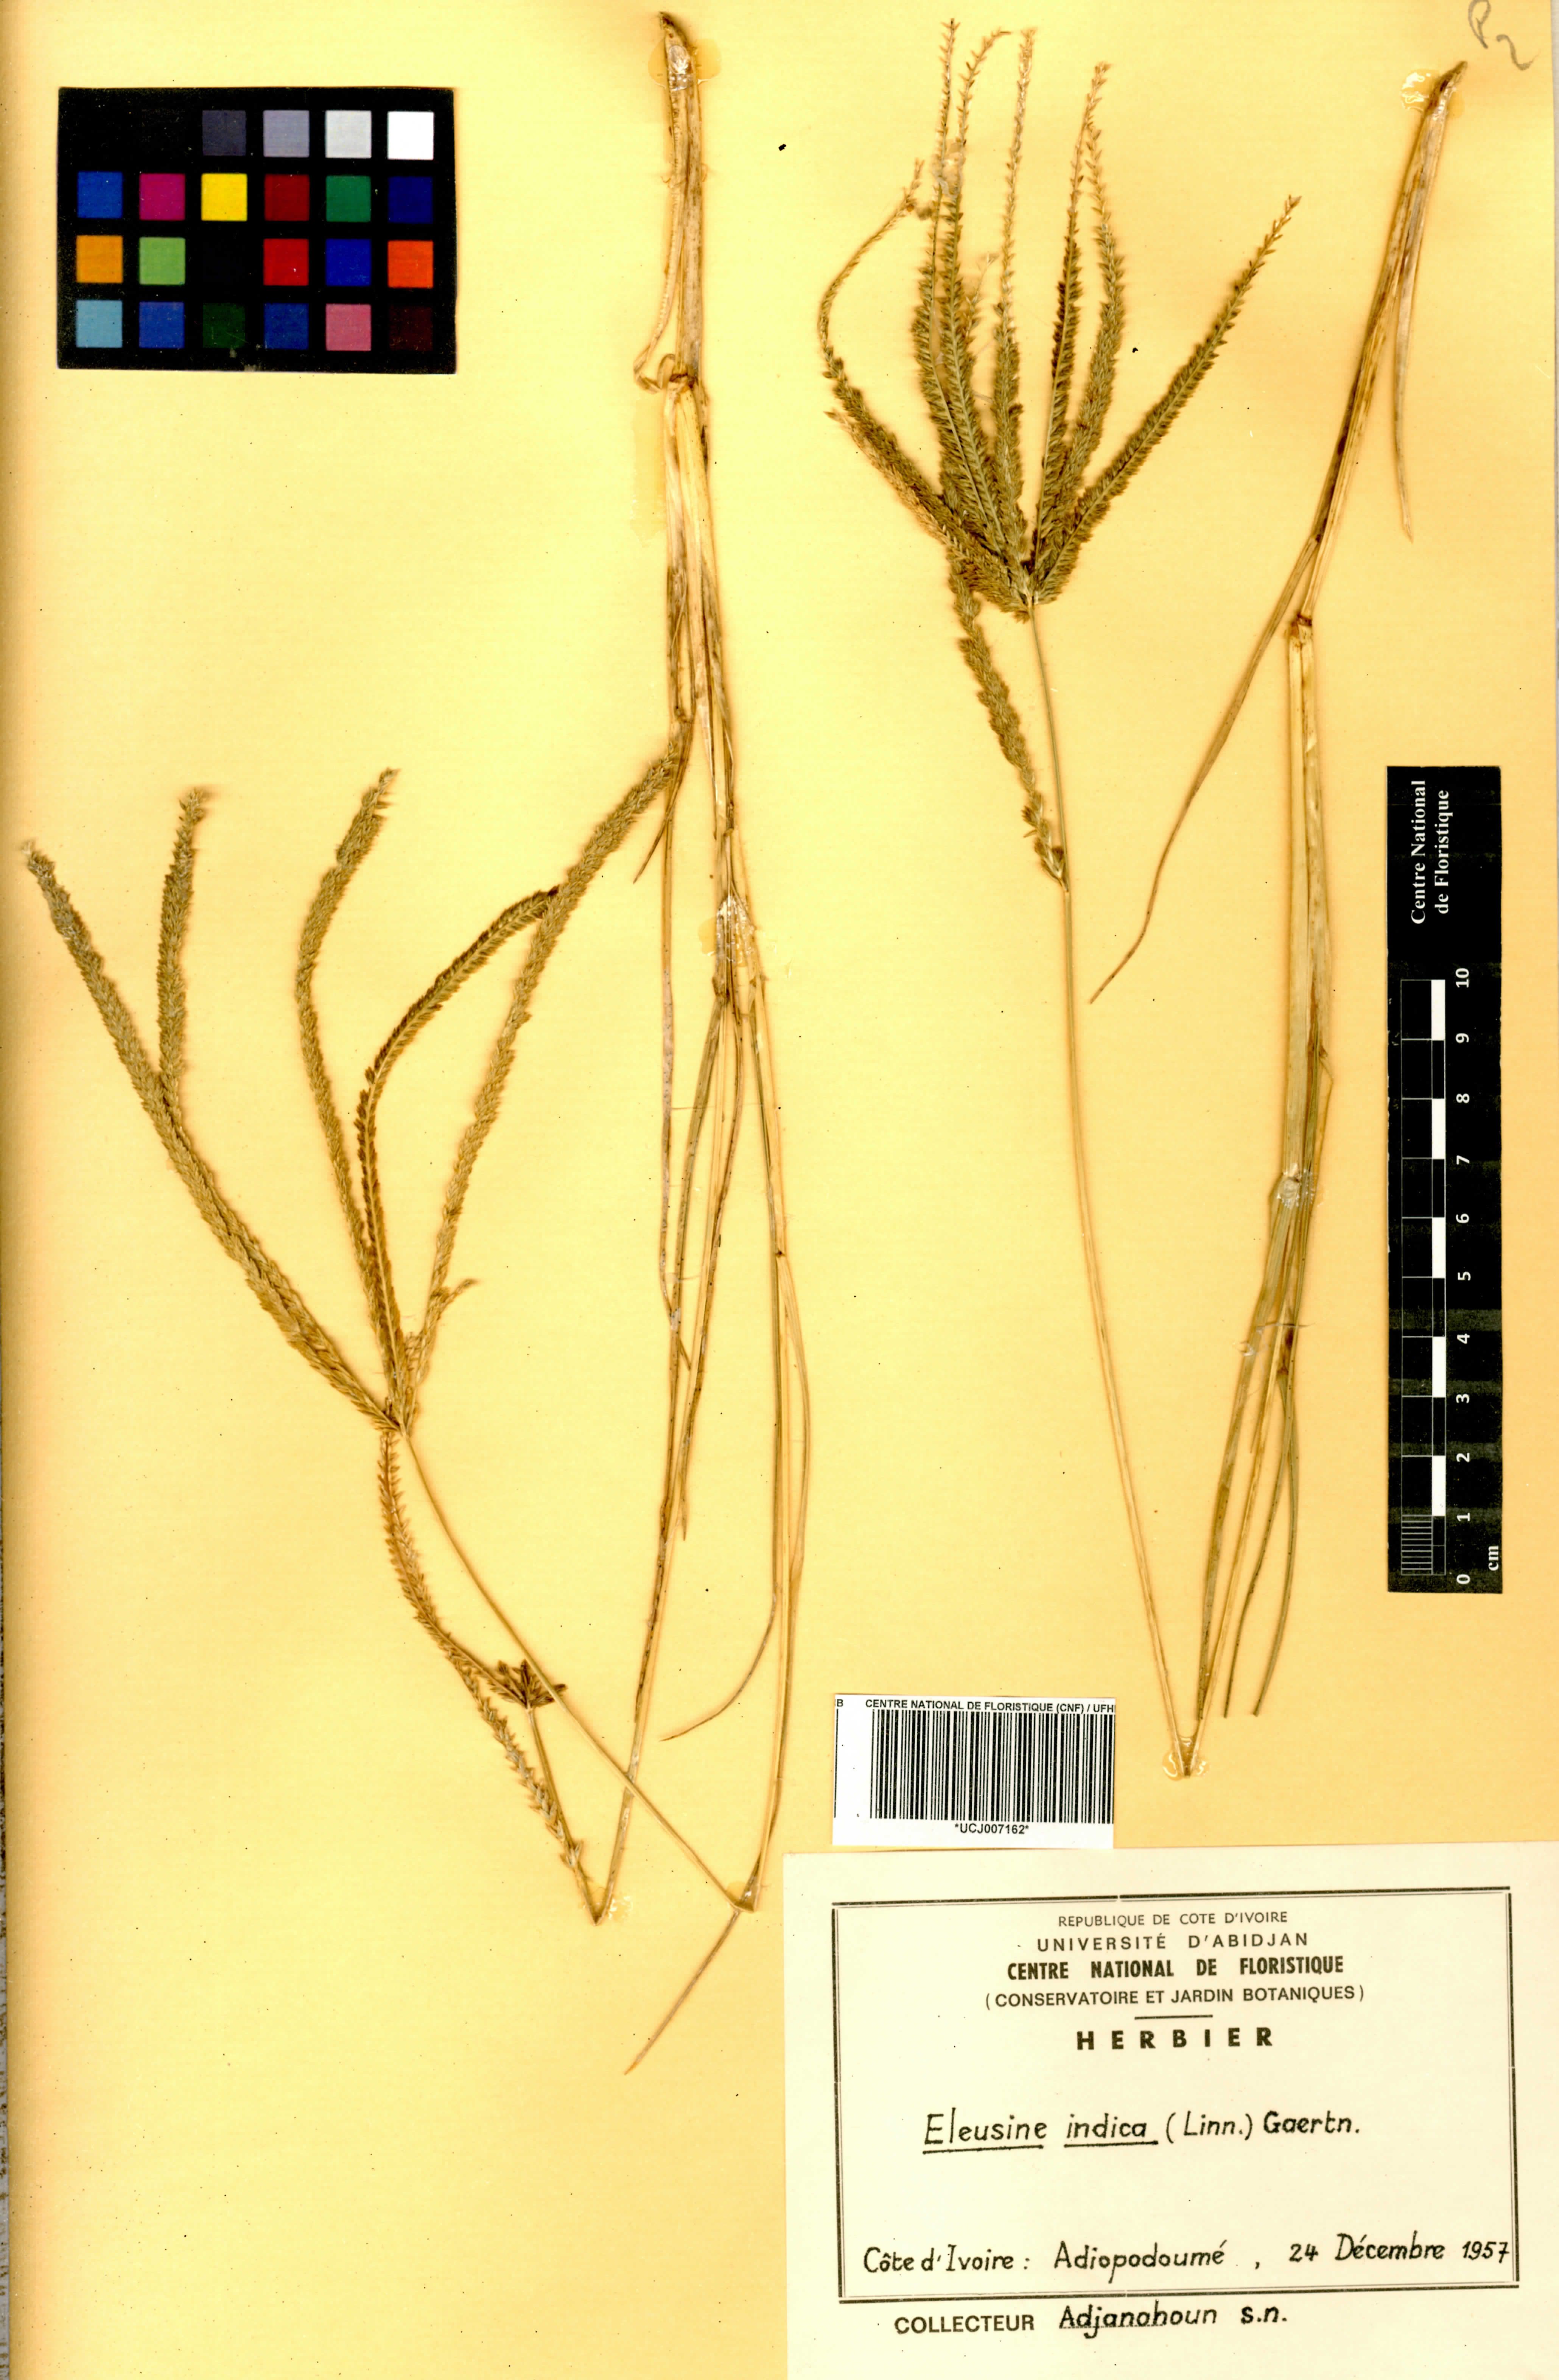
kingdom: Plantae
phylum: Tracheophyta
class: Liliopsida
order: Poales
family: Poaceae
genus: Eleusine
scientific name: Eleusine indica
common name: Yard-grass
